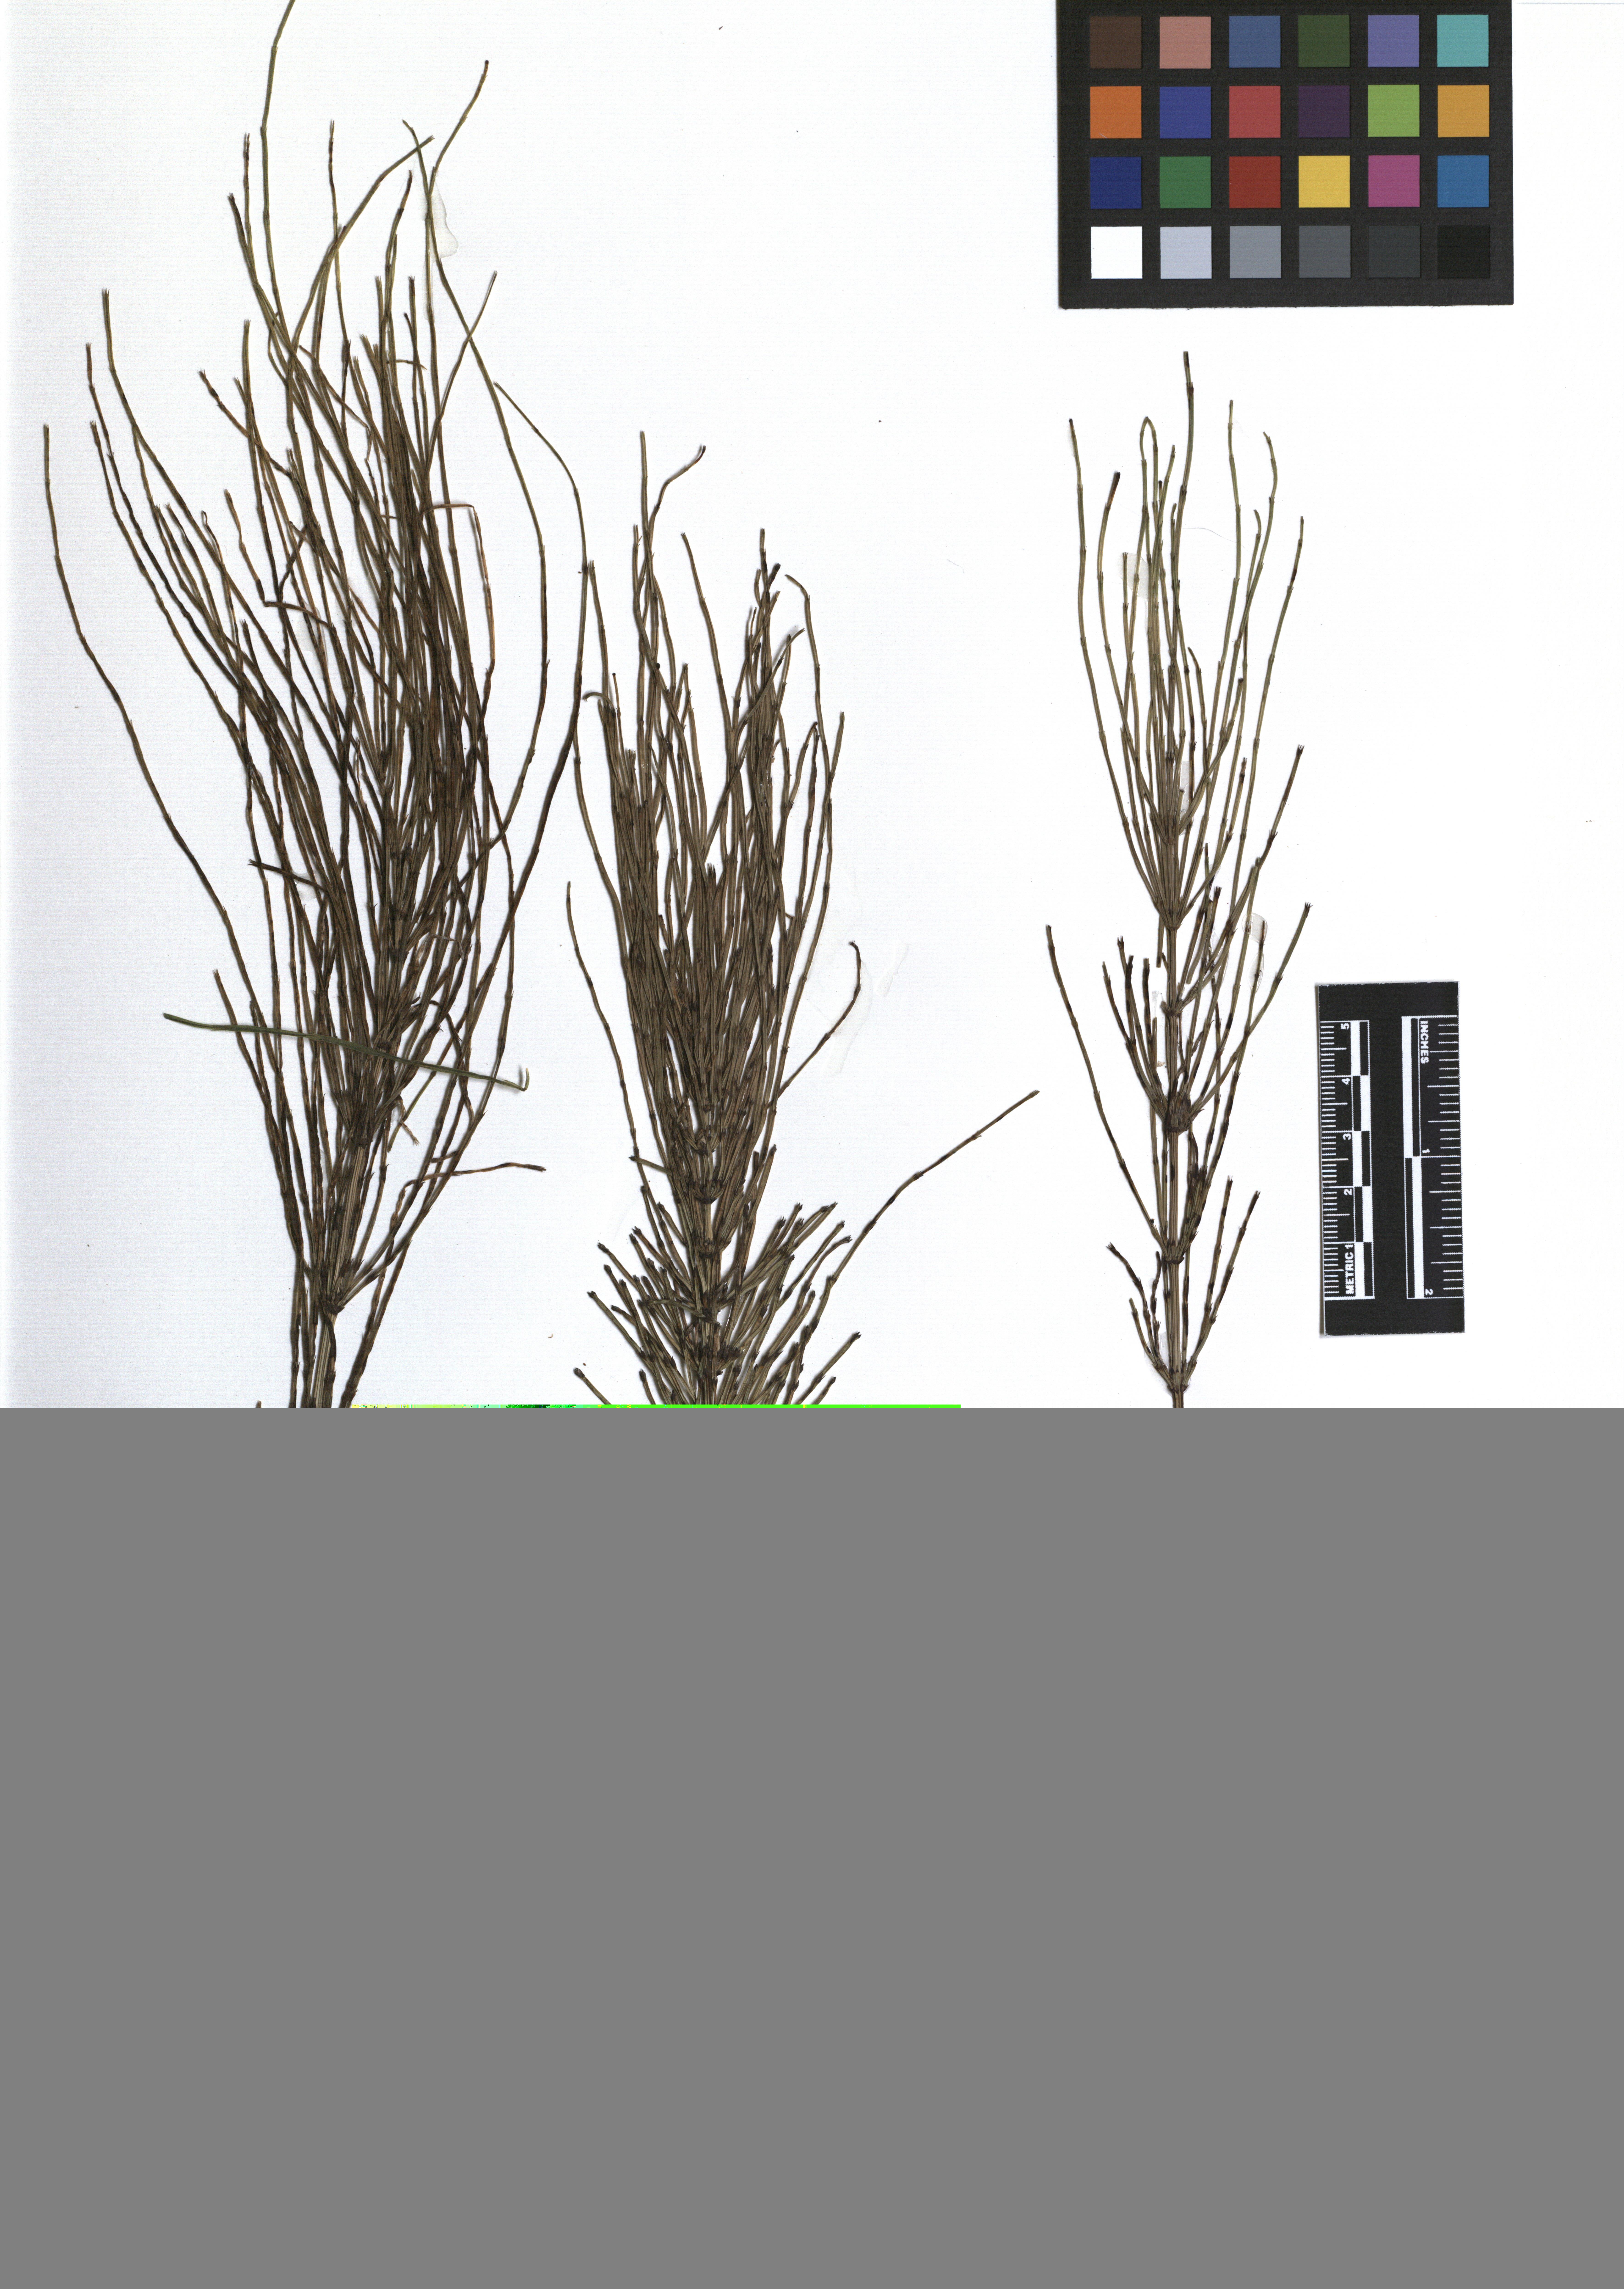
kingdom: Plantae
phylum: Tracheophyta
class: Polypodiopsida
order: Equisetales
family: Equisetaceae
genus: Equisetum
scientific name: Equisetum arvense
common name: Field horsetail
